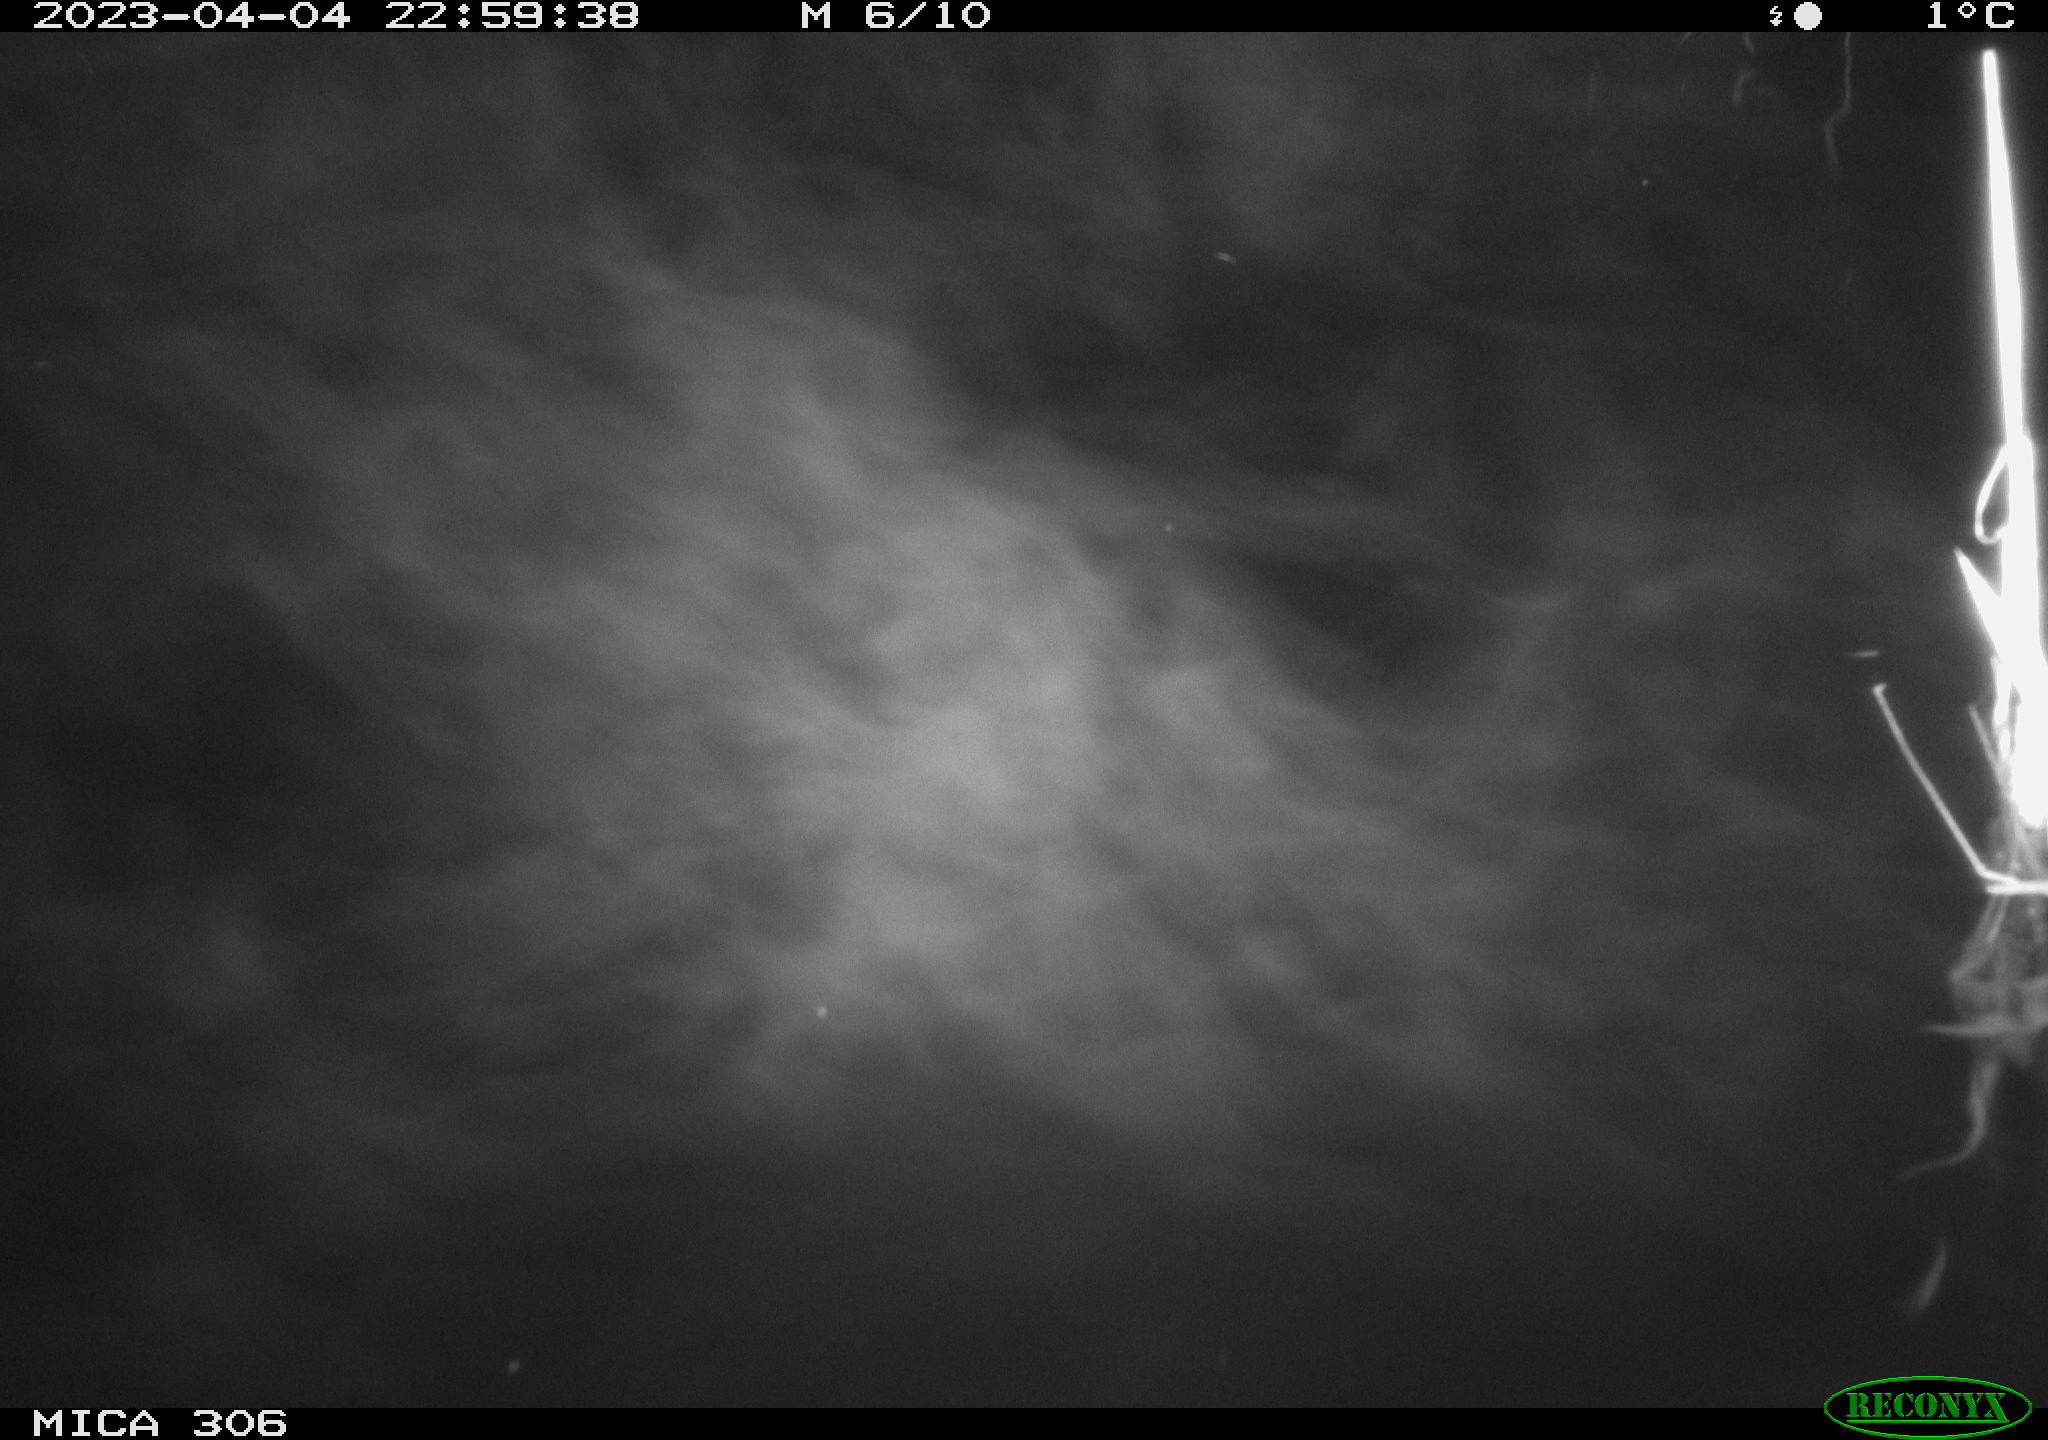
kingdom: Animalia
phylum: Chordata
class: Aves
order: Anseriformes
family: Anatidae
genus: Anas
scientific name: Anas
